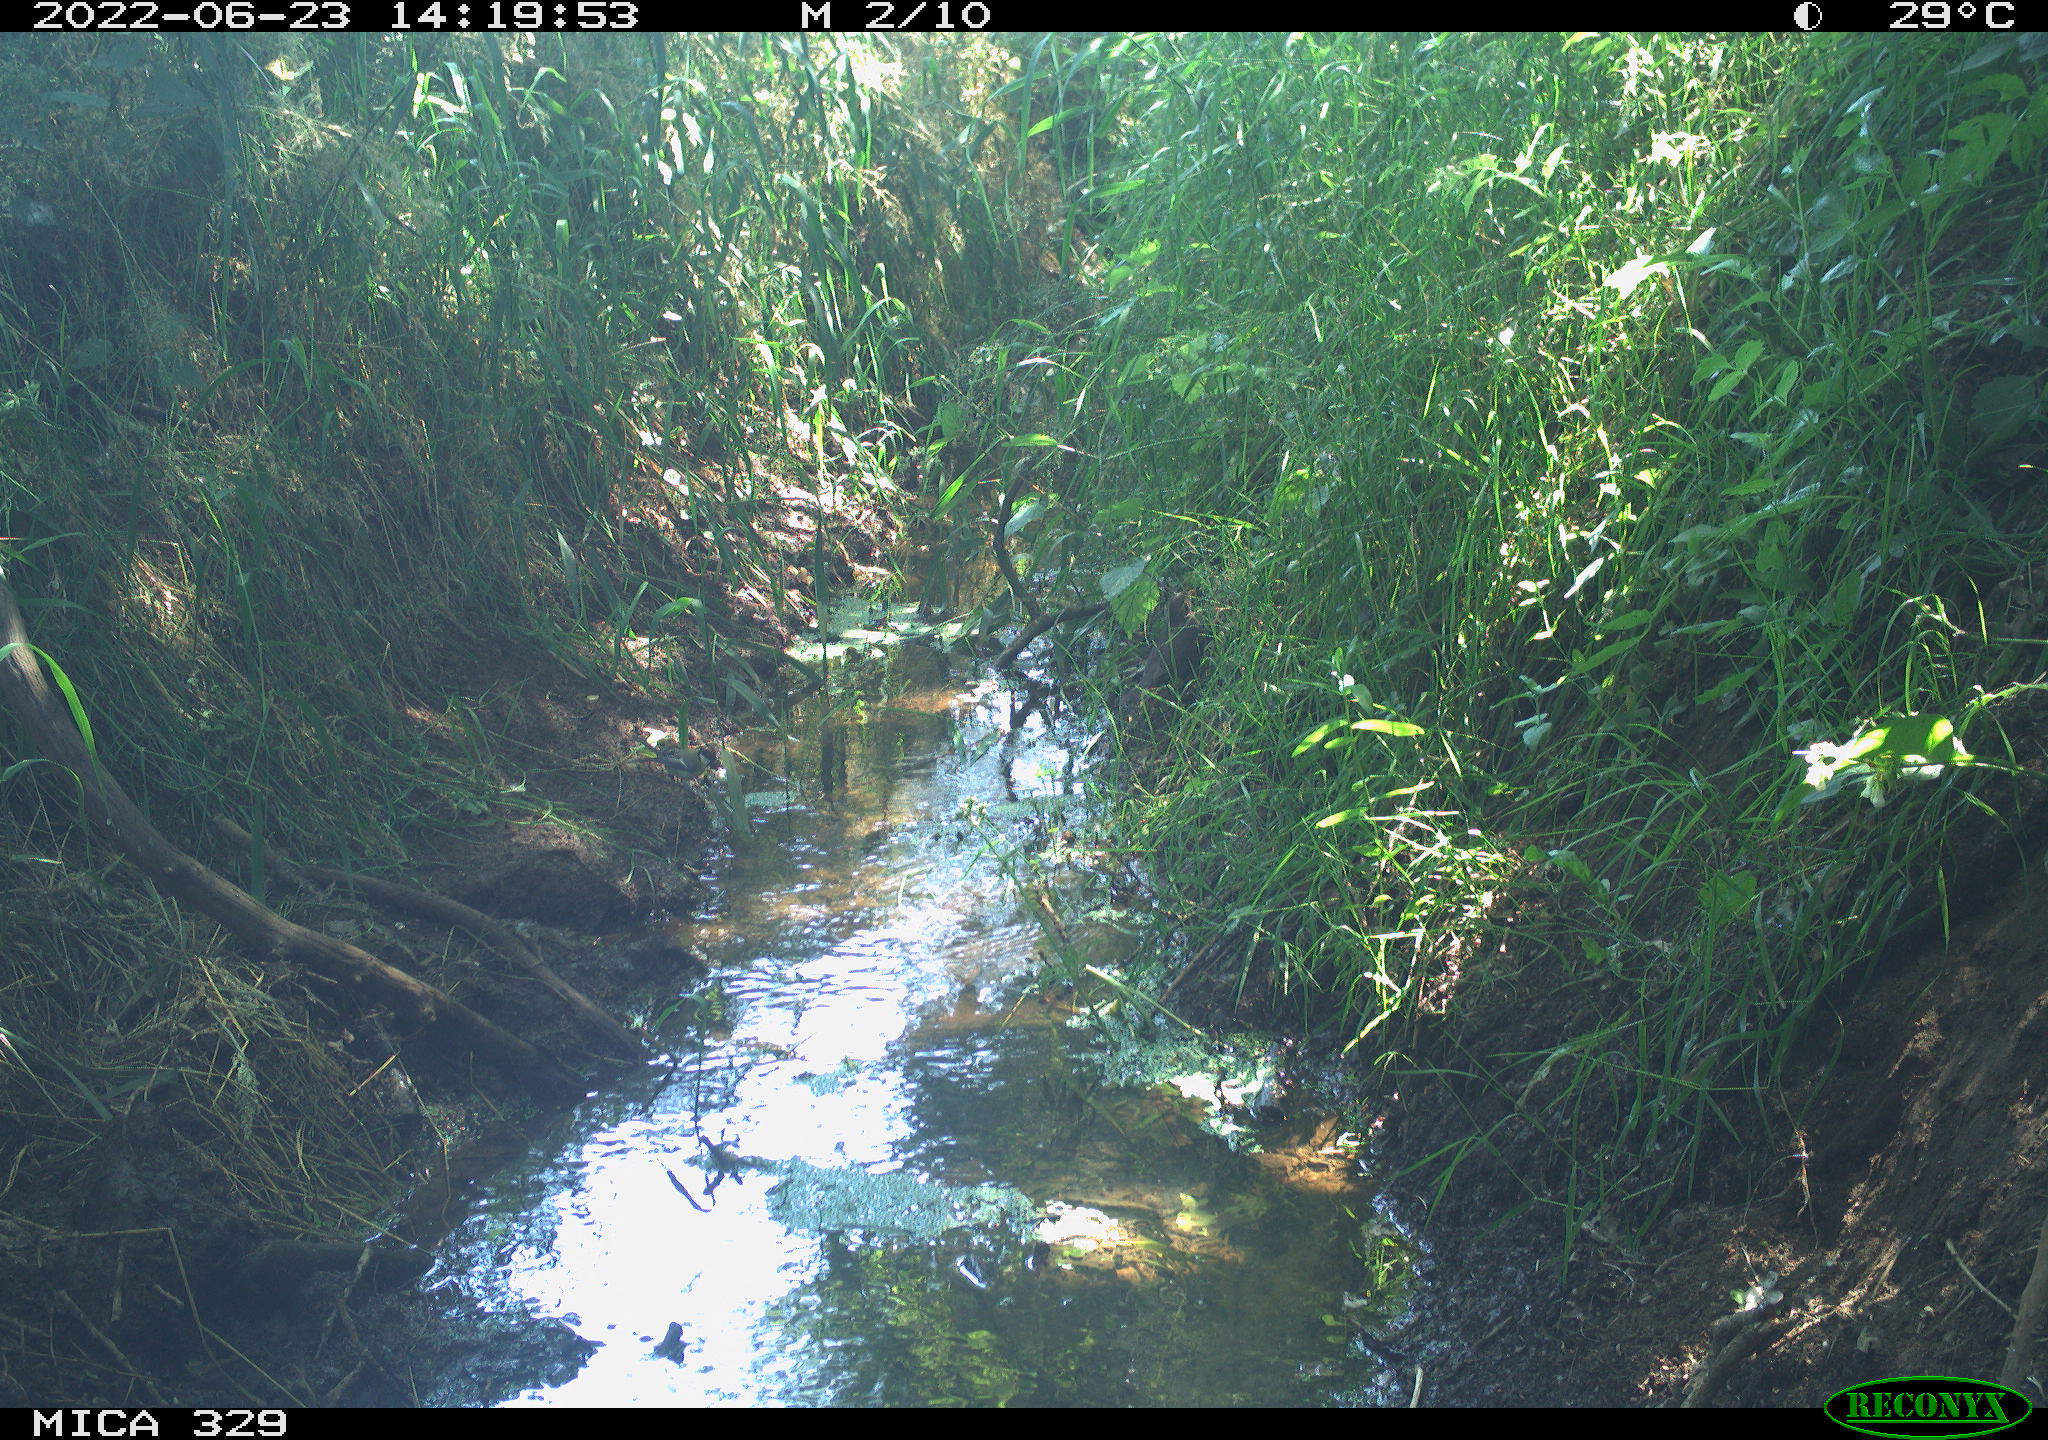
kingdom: Animalia
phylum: Chordata
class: Aves
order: Passeriformes
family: Turdidae
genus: Turdus
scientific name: Turdus merula
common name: Common blackbird
